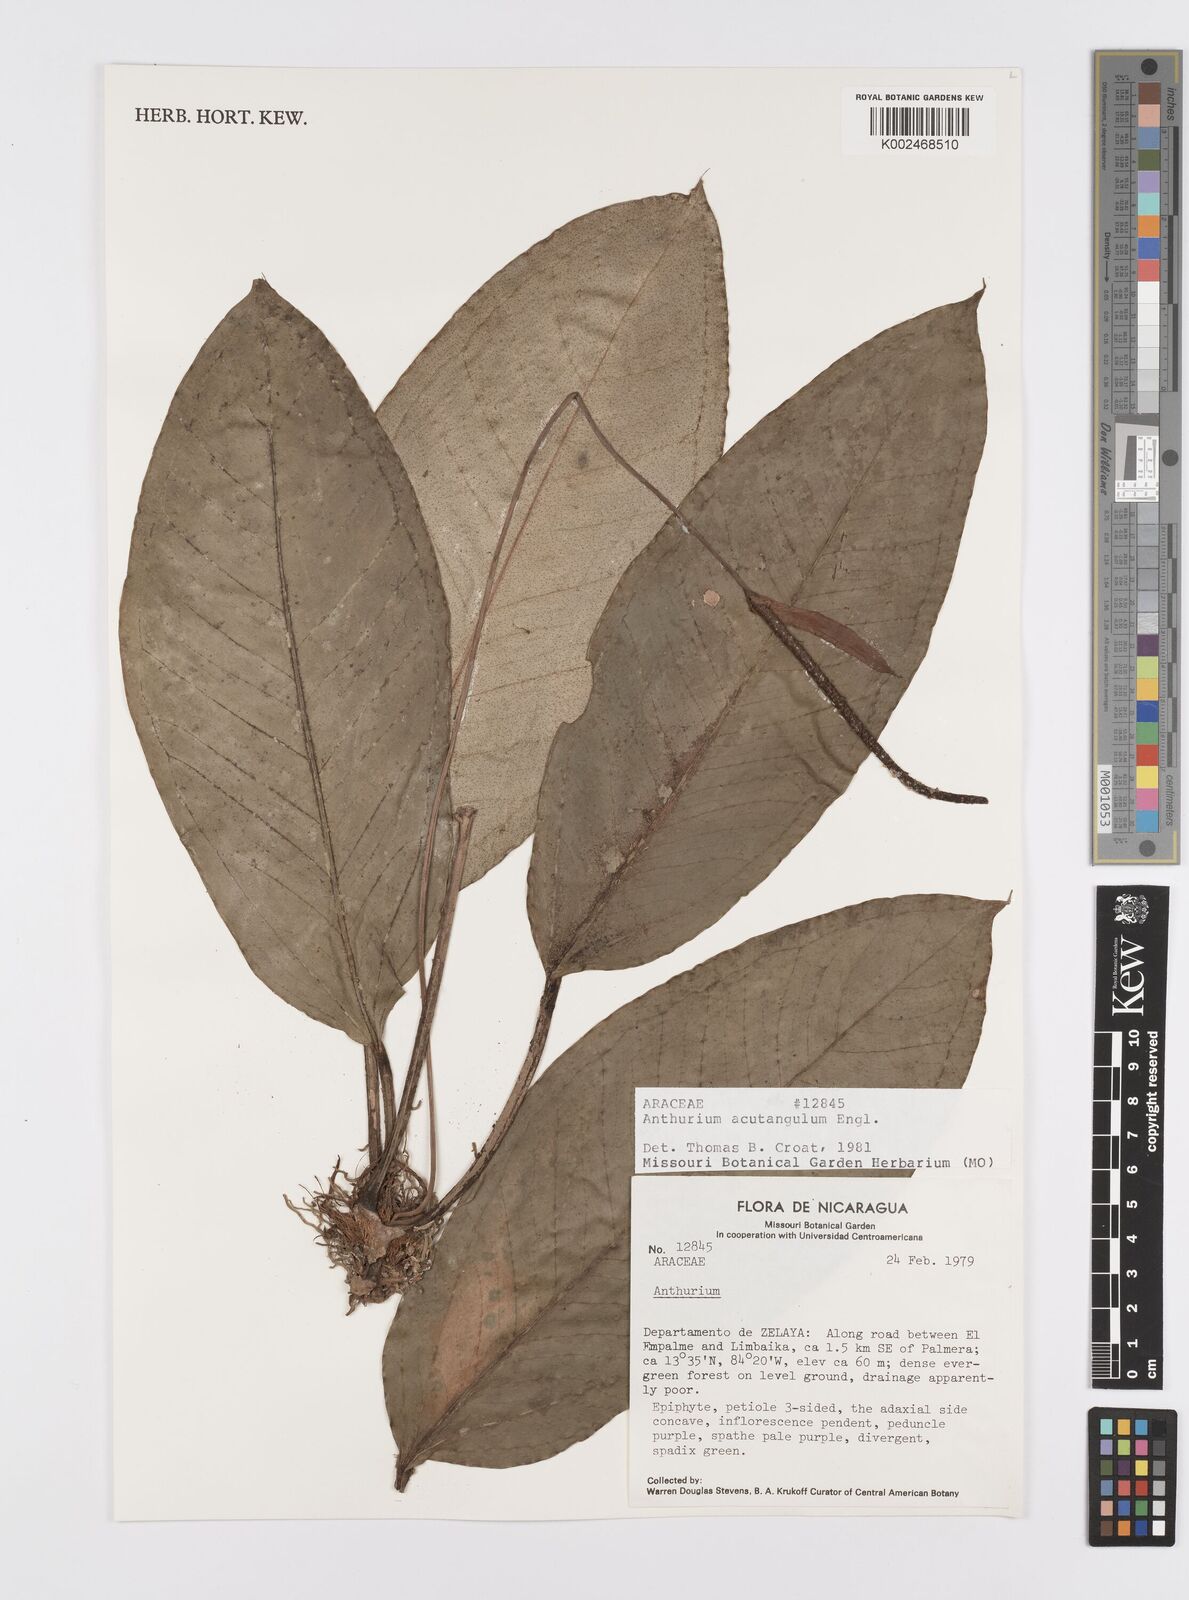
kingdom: Plantae
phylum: Tracheophyta
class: Liliopsida
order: Alismatales
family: Araceae
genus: Anthurium
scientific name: Anthurium acutangulum
